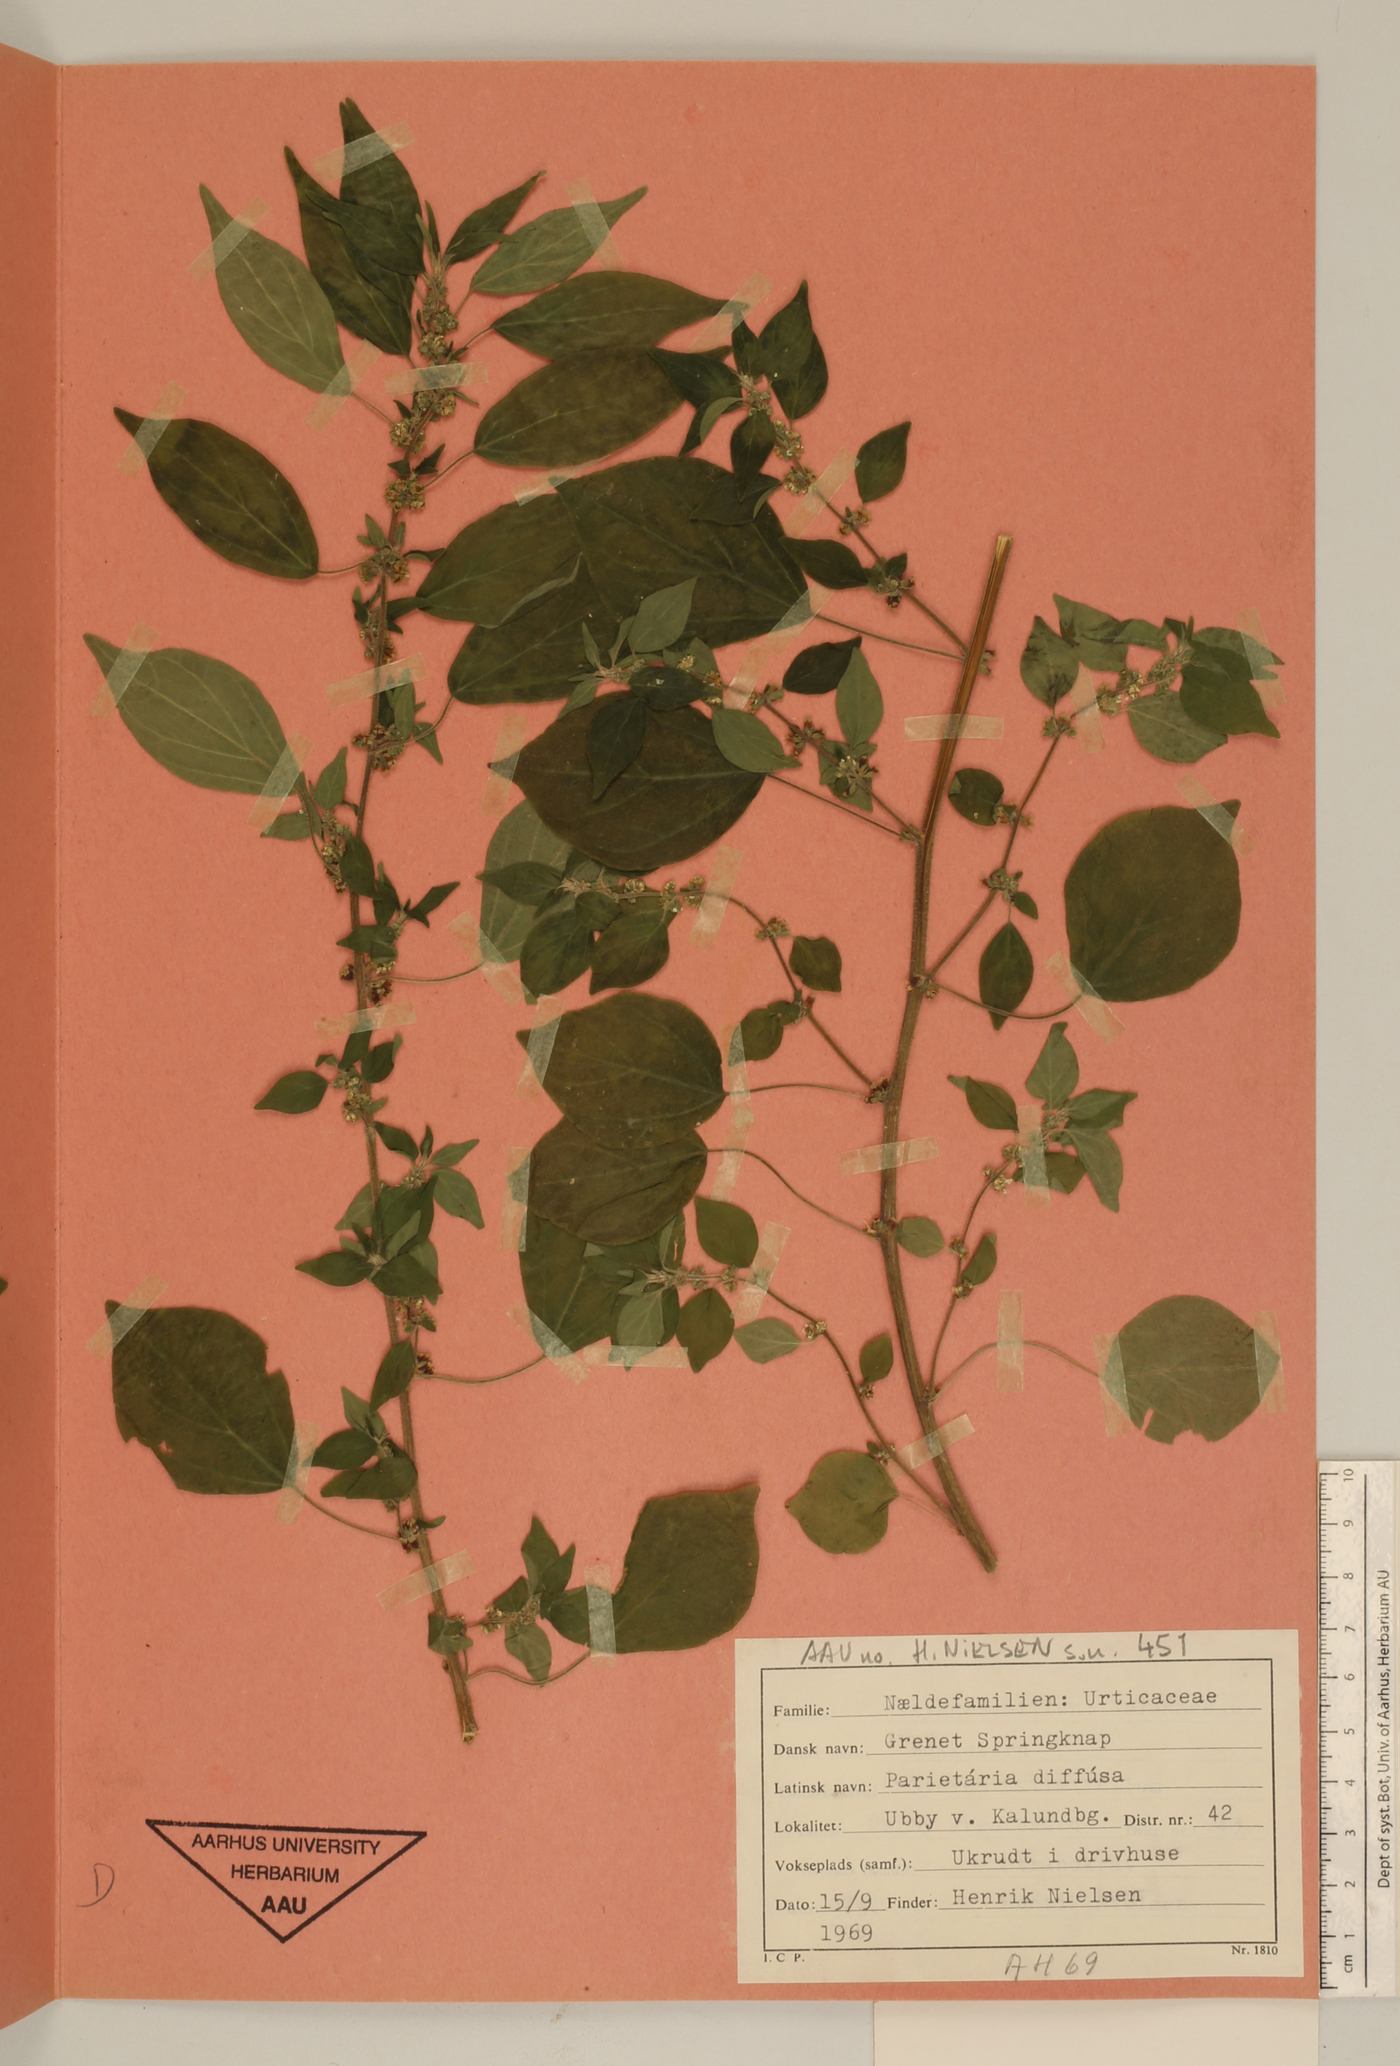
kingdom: Plantae
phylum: Tracheophyta
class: Magnoliopsida
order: Rosales
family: Urticaceae
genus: Parietaria
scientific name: Parietaria judaica
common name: Pellitory-of-the-wall
